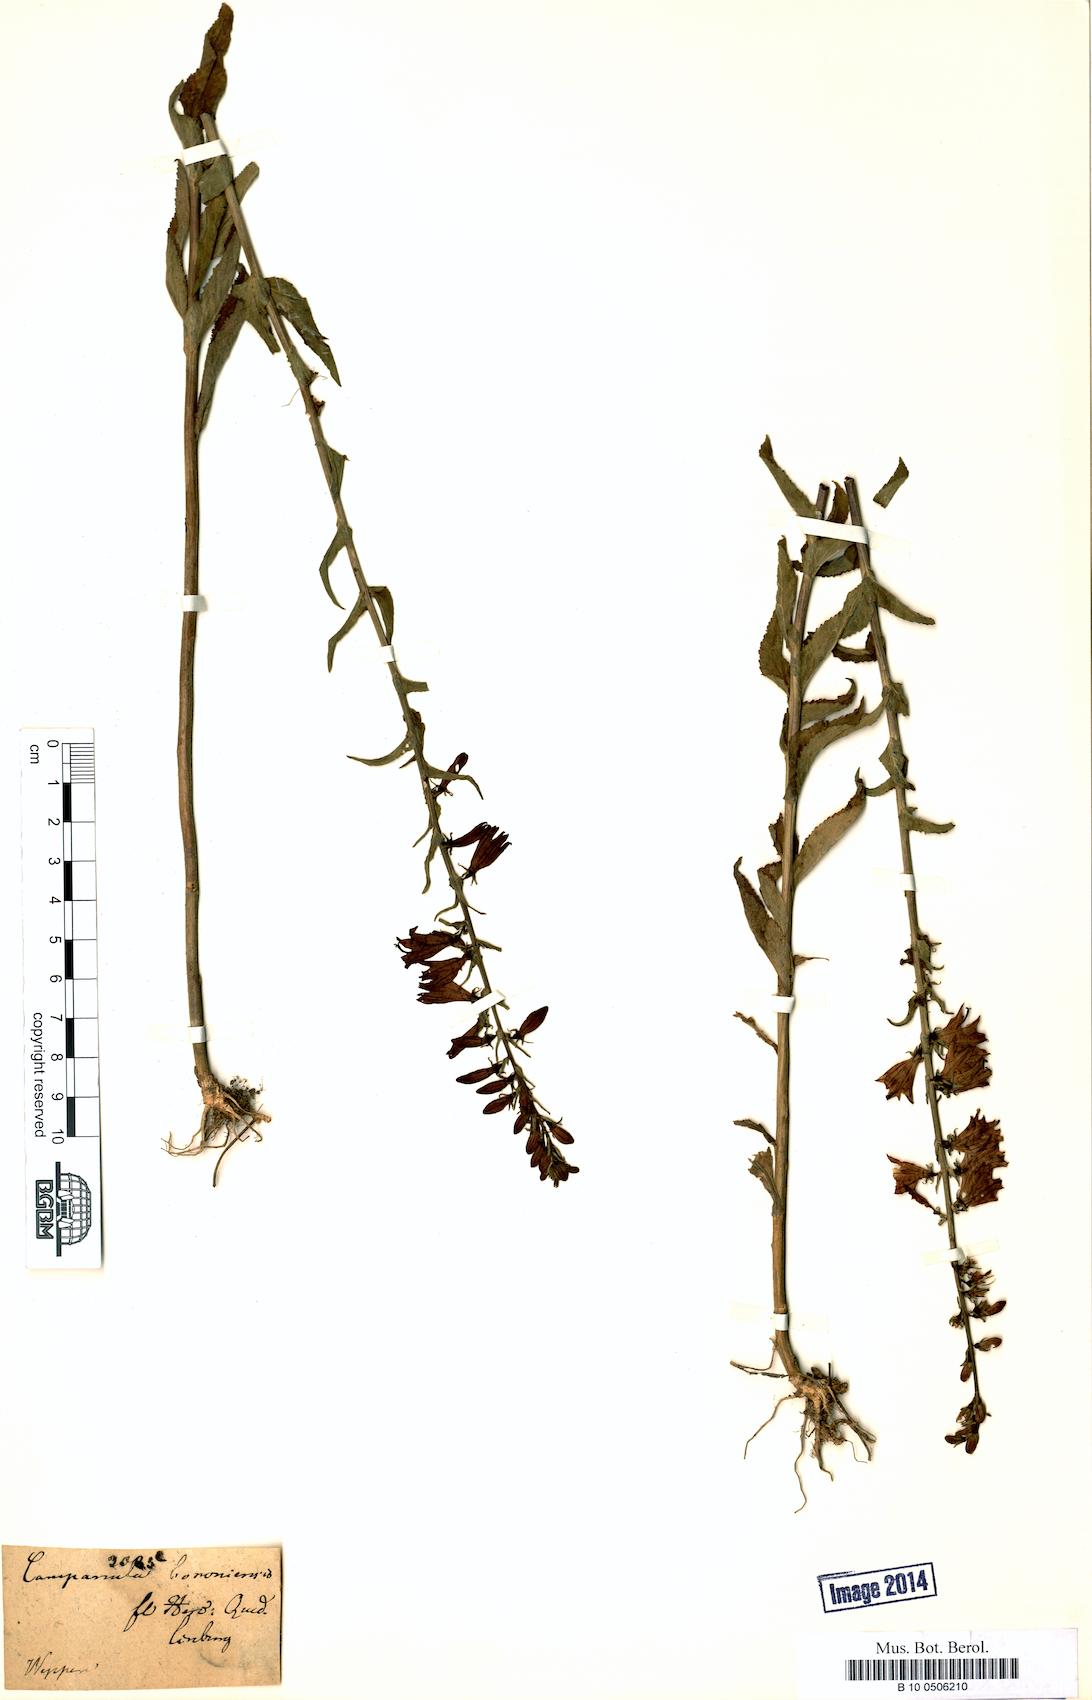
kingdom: Plantae
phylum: Tracheophyta
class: Magnoliopsida
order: Asterales
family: Campanulaceae
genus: Campanula
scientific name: Campanula bononiensis
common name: Pale bellflower
